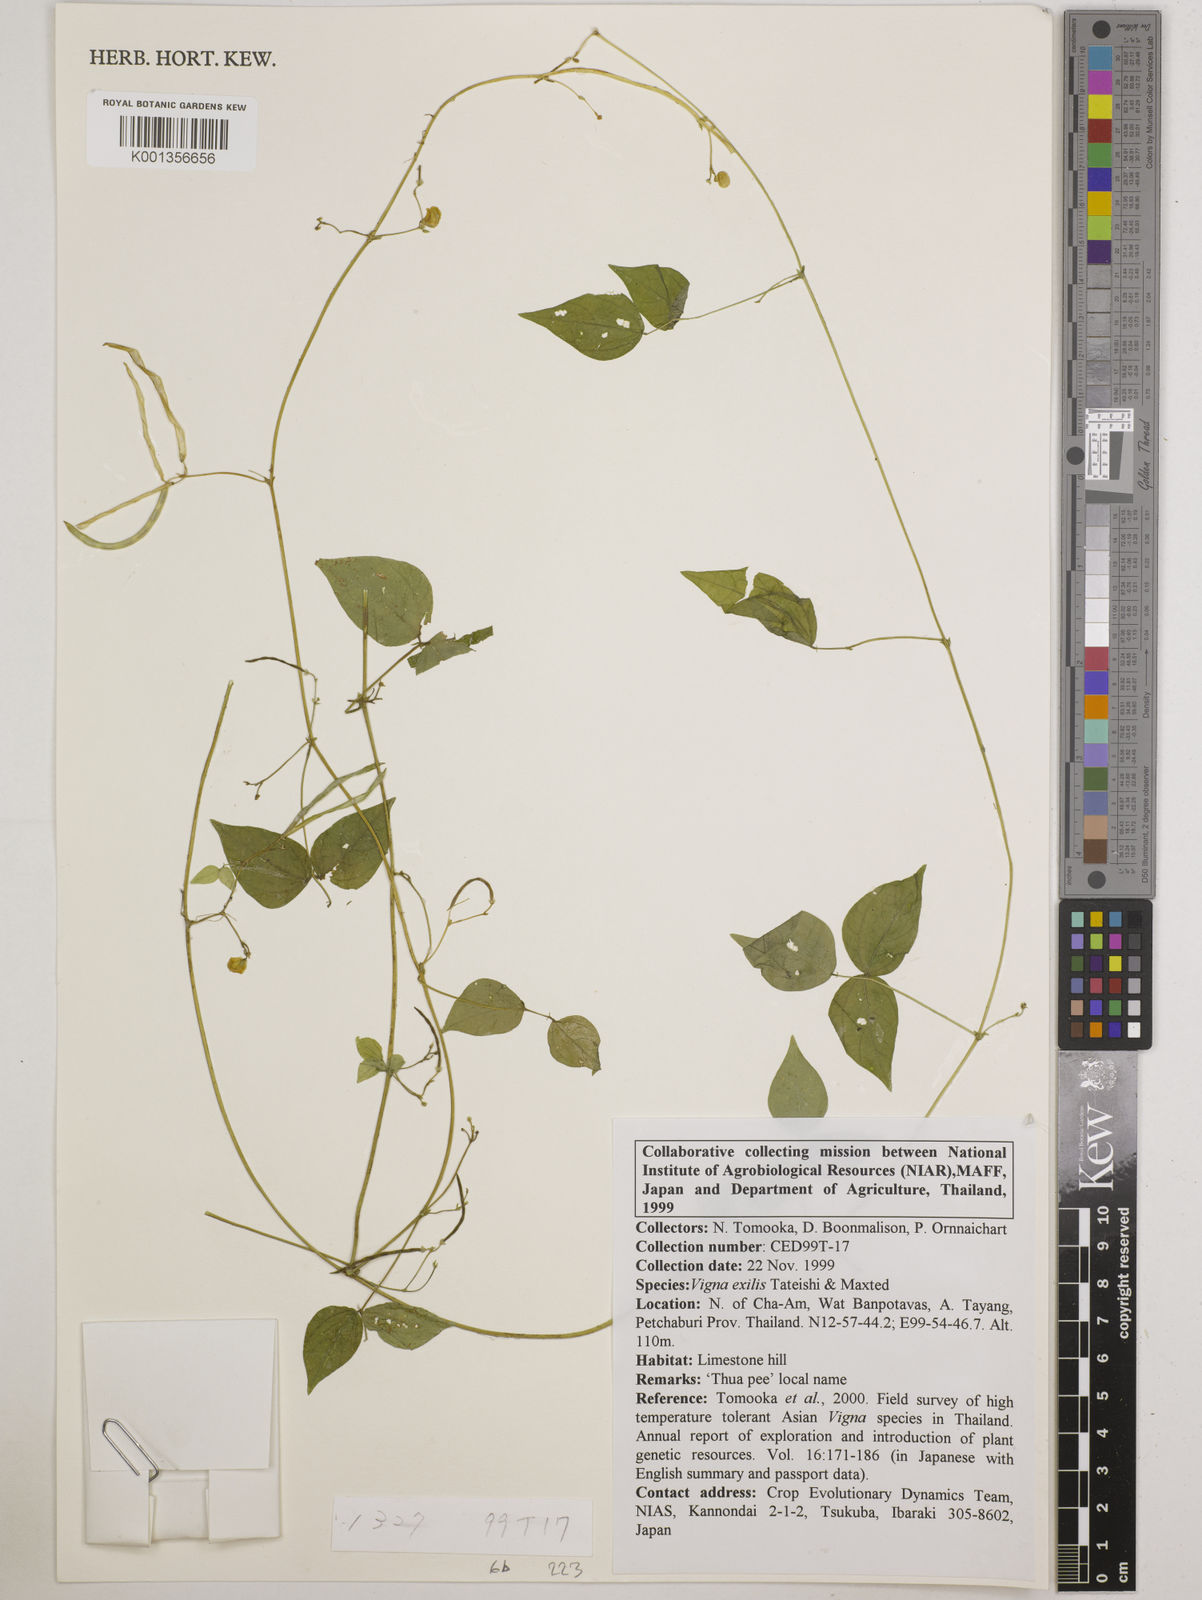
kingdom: Plantae
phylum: Tracheophyta
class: Magnoliopsida
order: Fabales
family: Fabaceae
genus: Vigna
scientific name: Vigna
